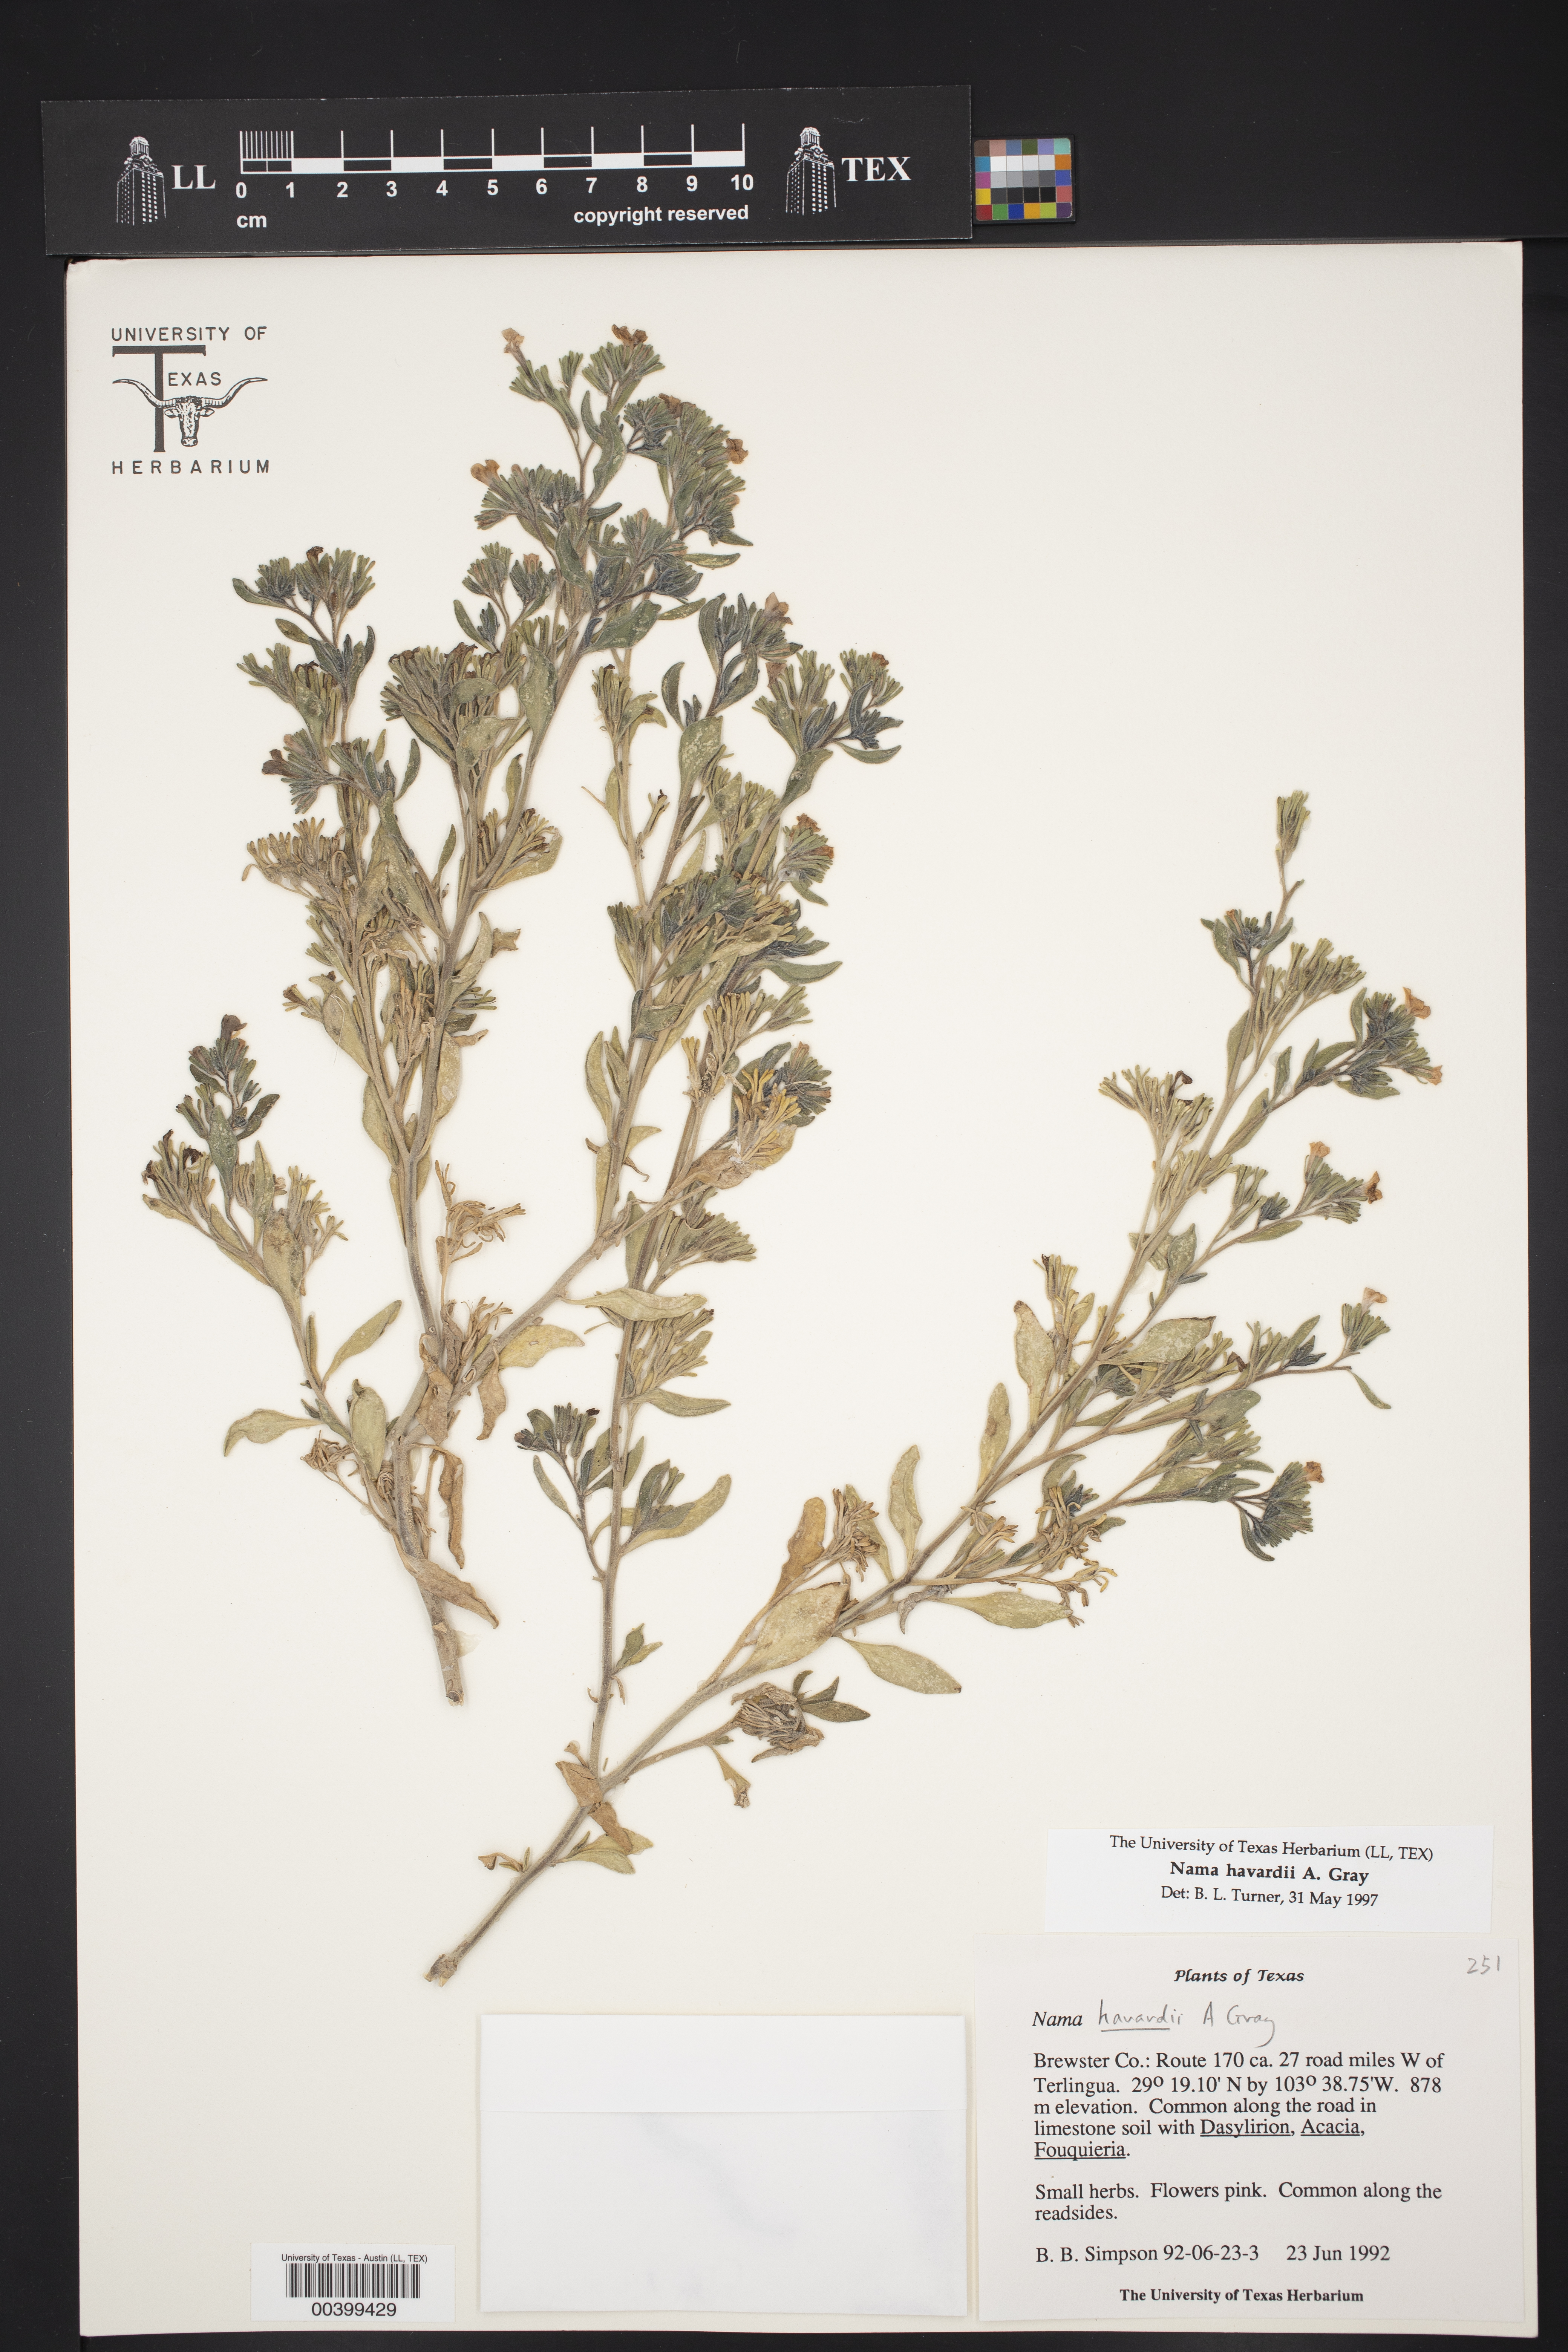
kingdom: Plantae
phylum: Tracheophyta
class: Magnoliopsida
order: Boraginales
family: Namaceae
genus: Nama
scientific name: Nama havardii
